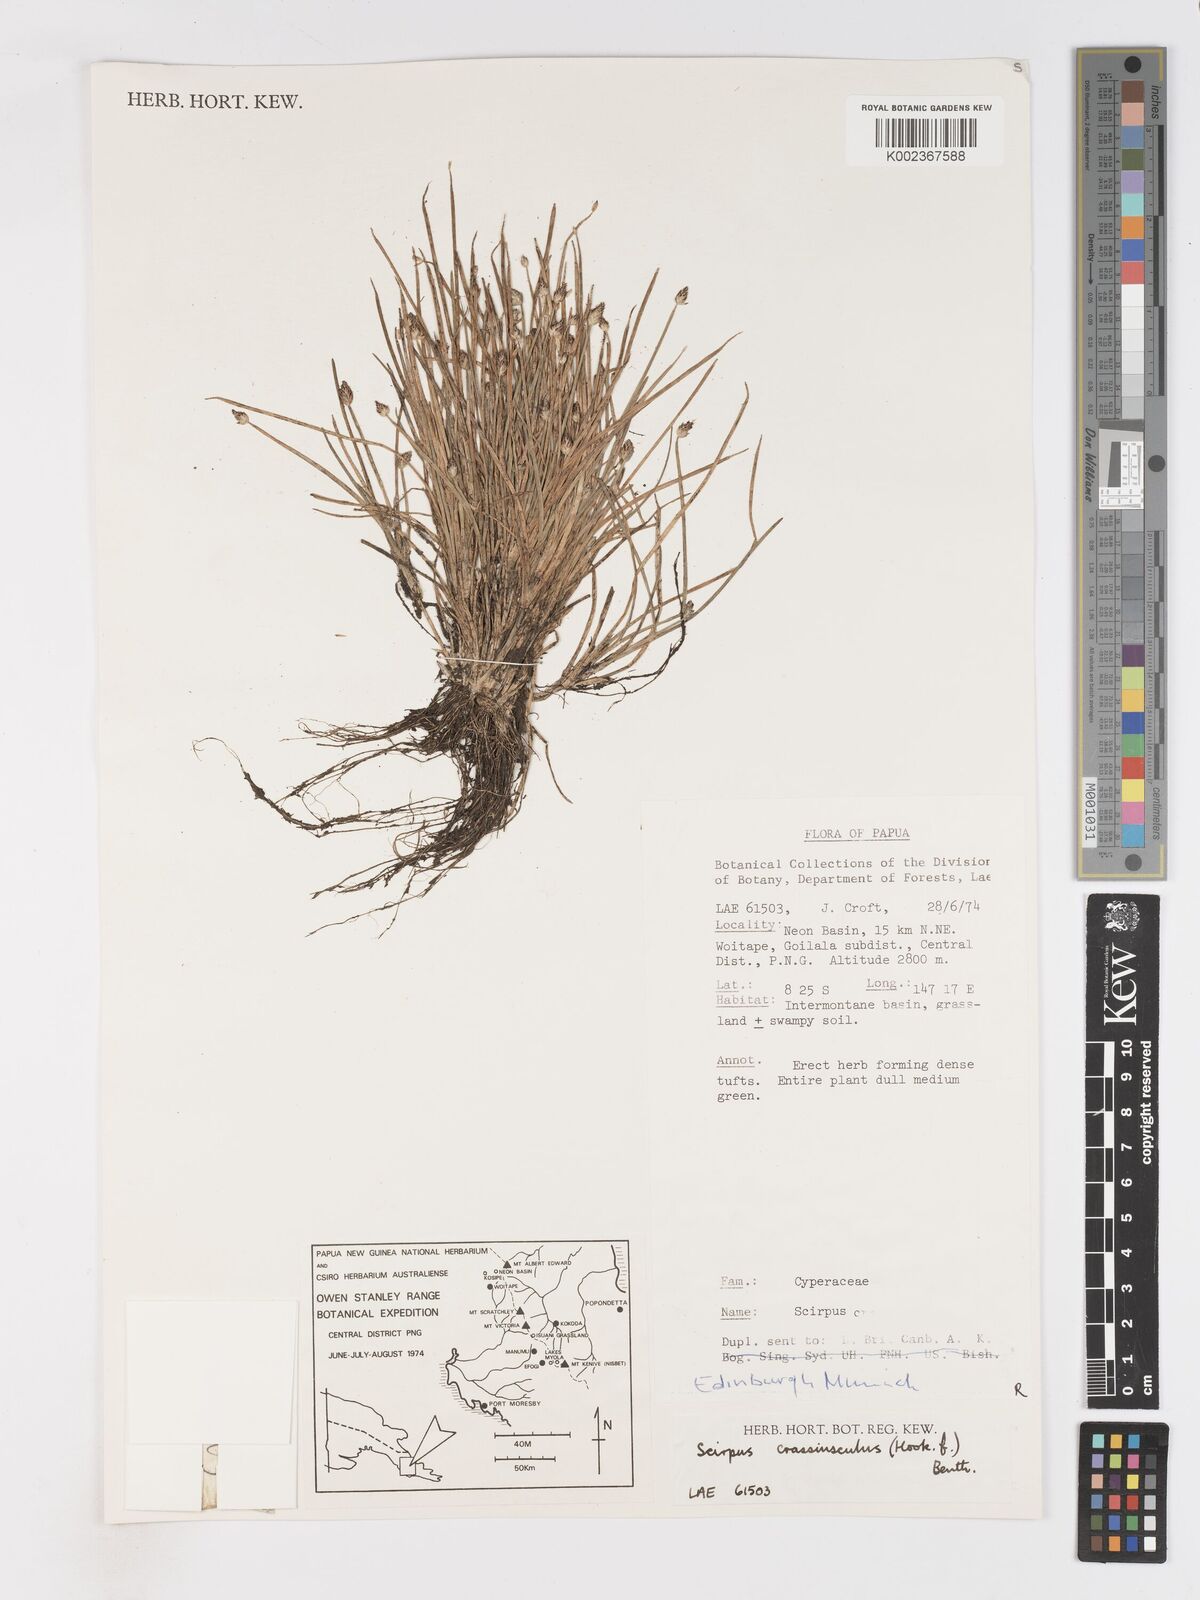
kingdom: Plantae
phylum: Tracheophyta
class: Liliopsida
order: Poales
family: Cyperaceae
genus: Isolepis
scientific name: Isolepis crassiuscula
